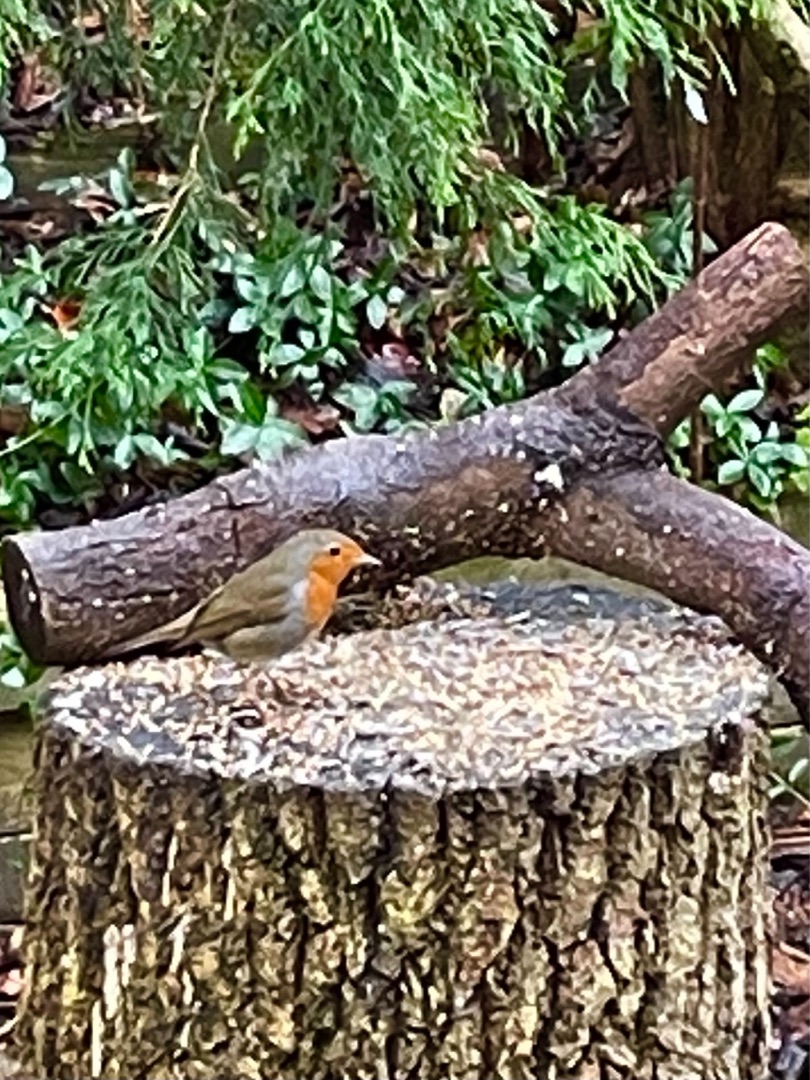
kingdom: Animalia
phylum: Chordata
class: Aves
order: Passeriformes
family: Muscicapidae
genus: Erithacus
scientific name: Erithacus rubecula
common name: Rødhals/rødkælk
